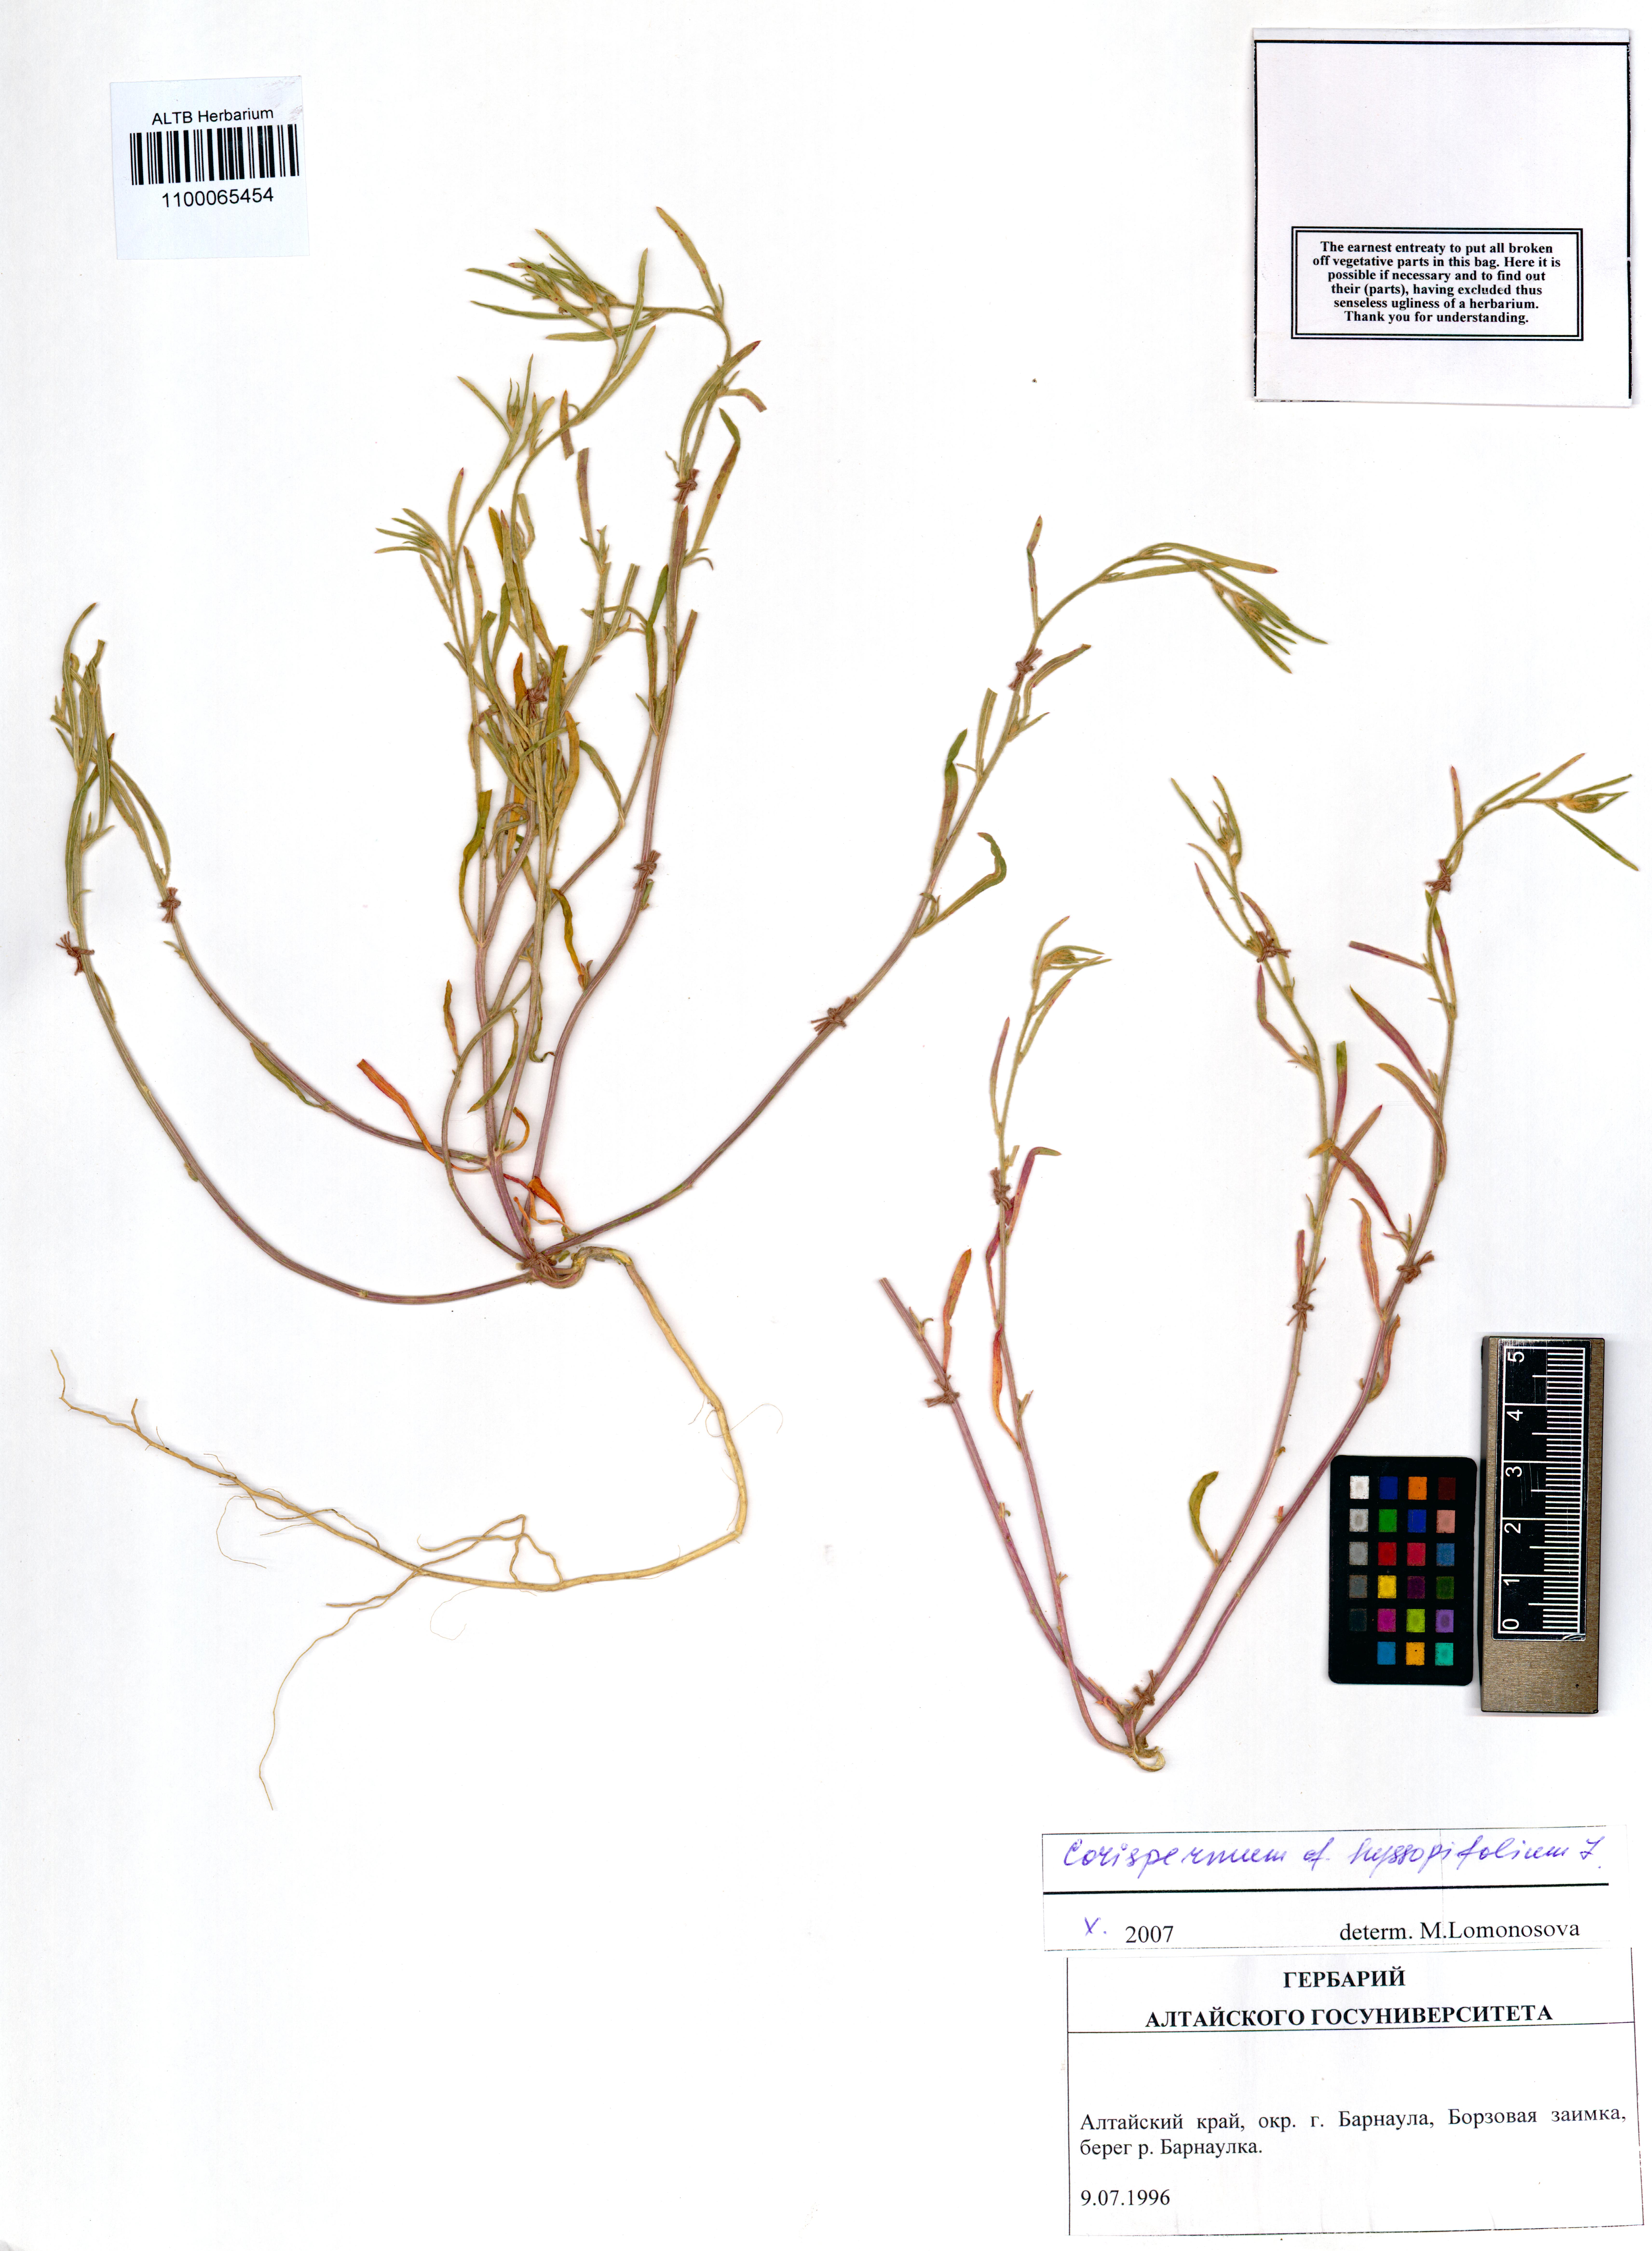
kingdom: Plantae
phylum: Tracheophyta
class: Magnoliopsida
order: Caryophyllales
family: Amaranthaceae
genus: Corispermum
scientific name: Corispermum hyssopifolium
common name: Bugseed
